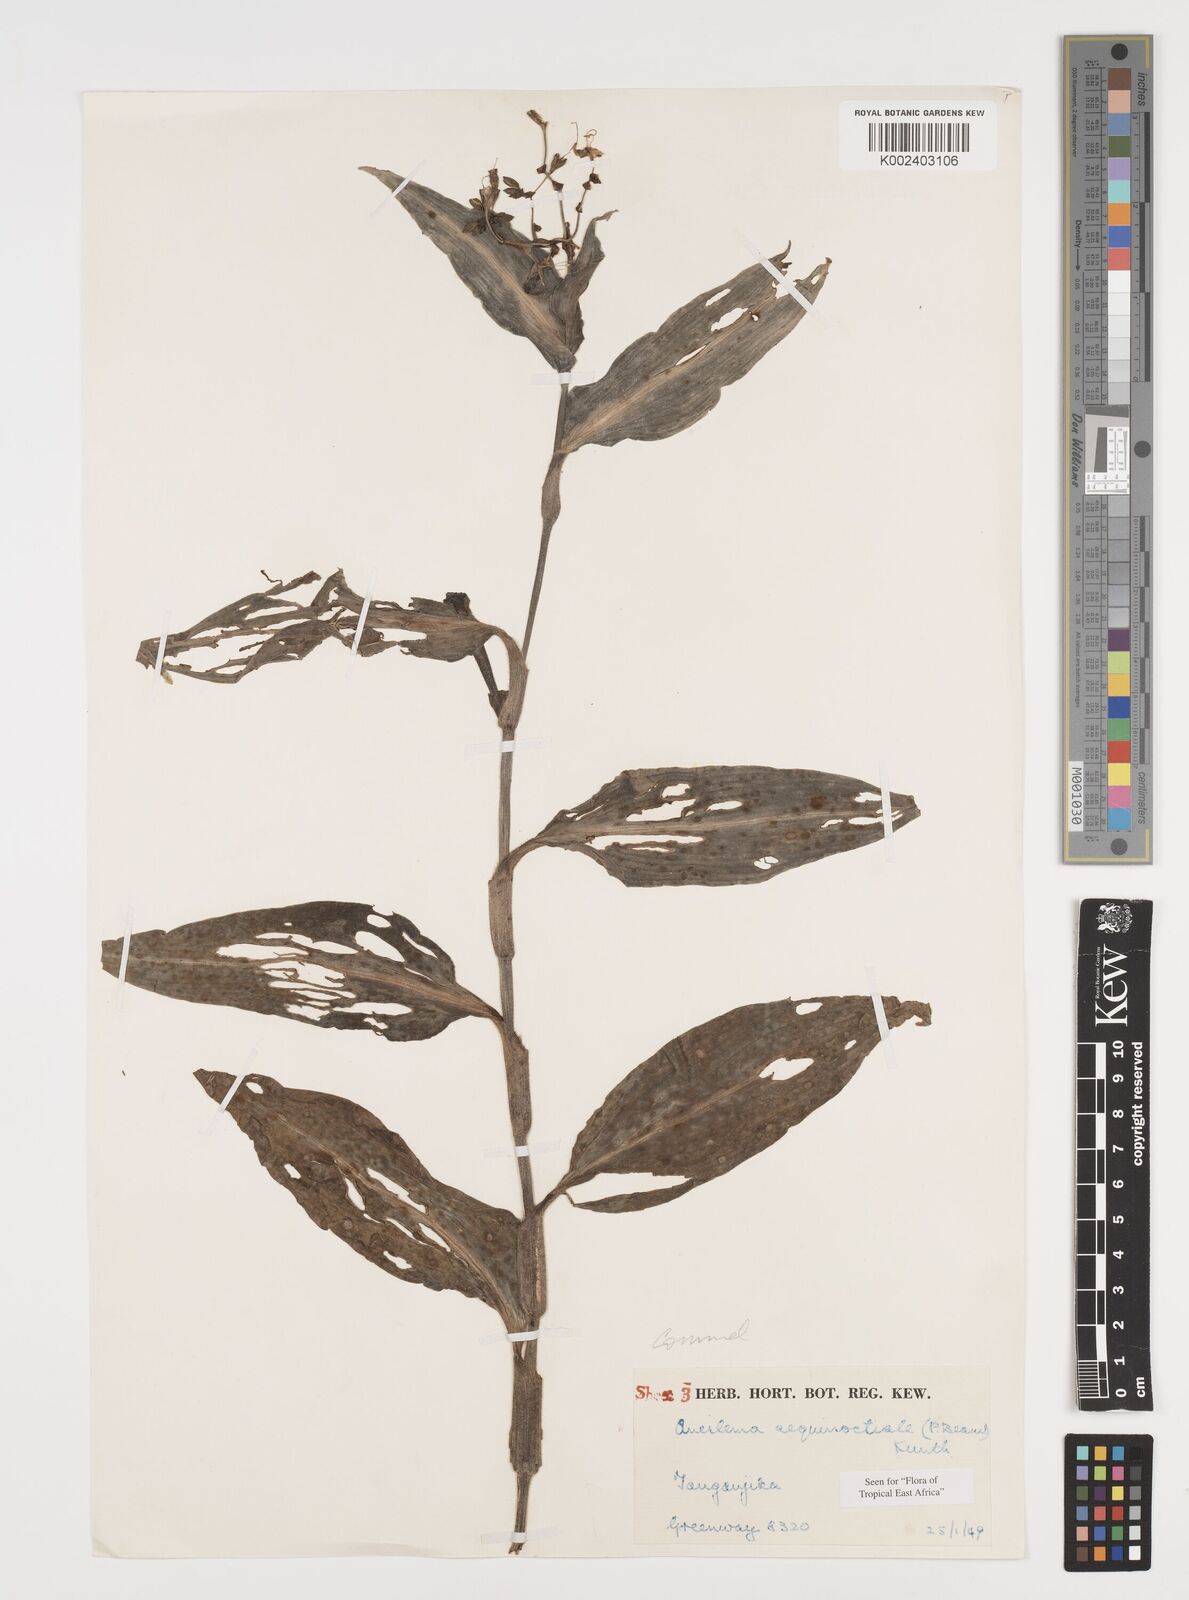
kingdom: Plantae
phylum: Tracheophyta
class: Liliopsida
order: Commelinales
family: Commelinaceae
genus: Aneilema
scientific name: Aneilema aequinoctiale
